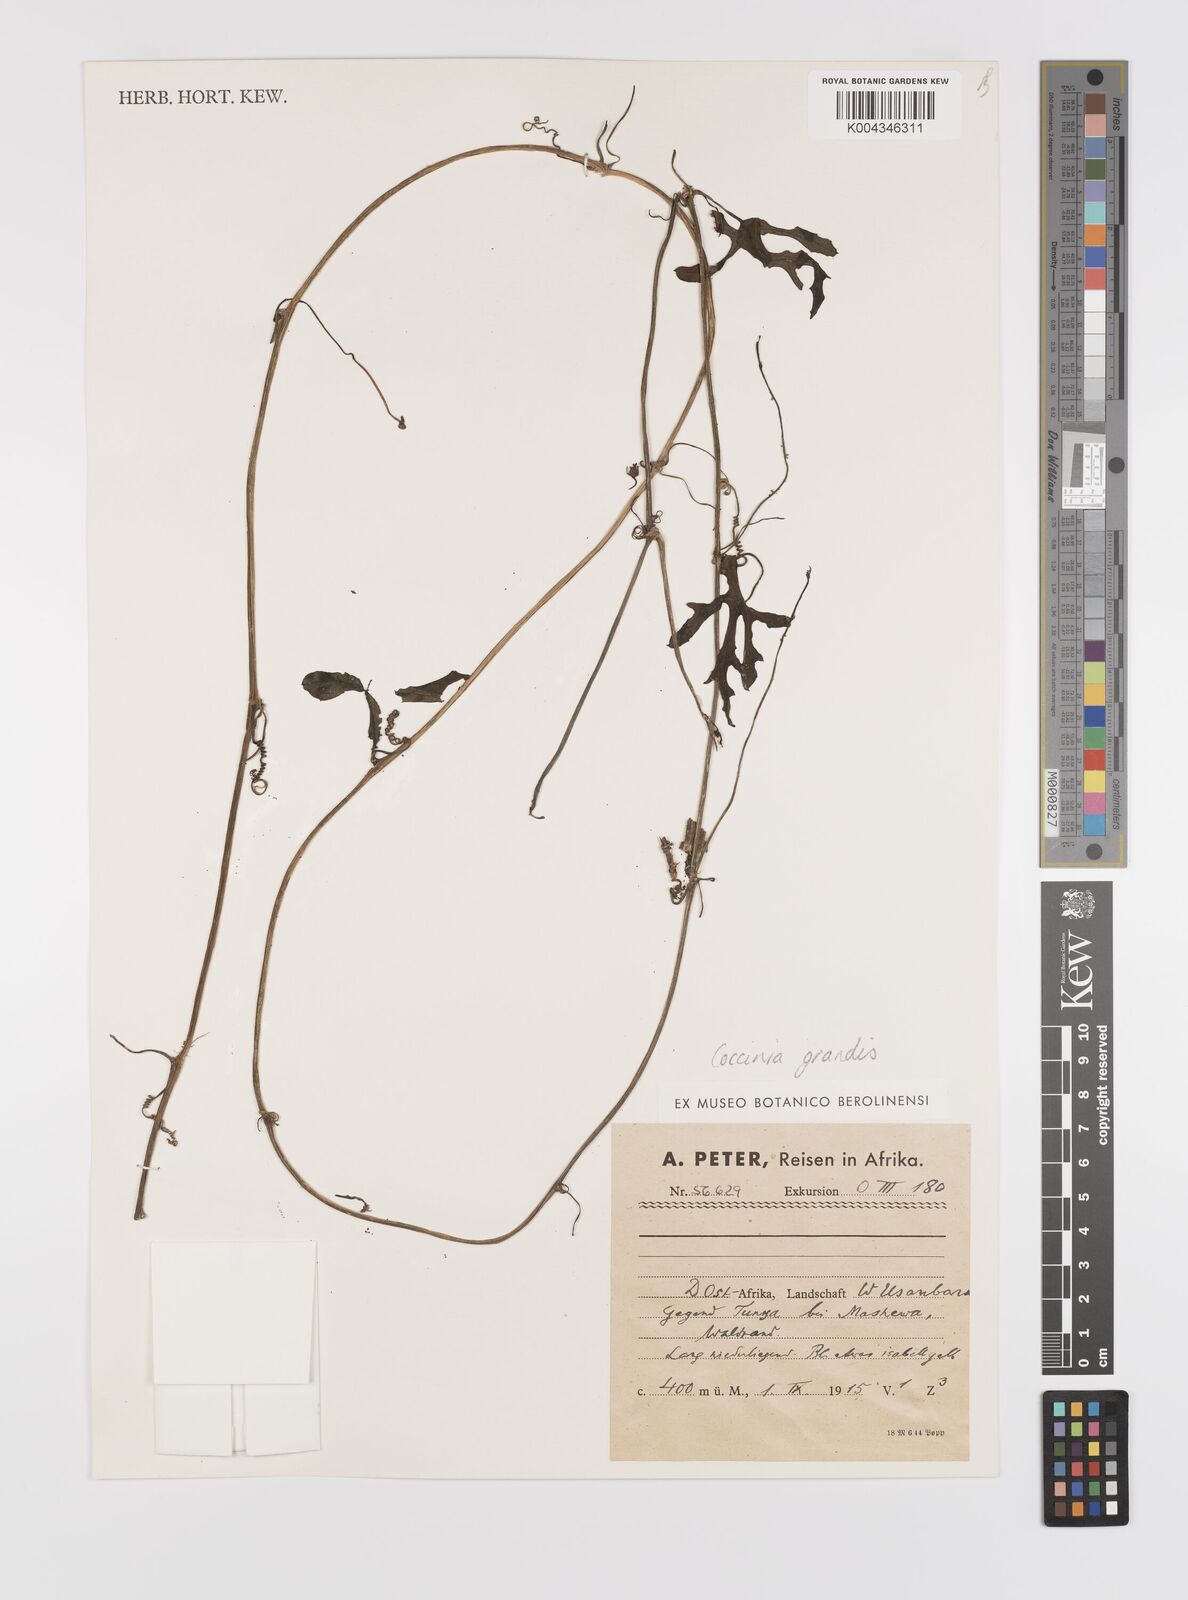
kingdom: Plantae
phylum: Tracheophyta
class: Magnoliopsida
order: Cucurbitales
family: Cucurbitaceae
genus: Coccinia
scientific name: Coccinia grandis
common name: Ivy gourd
